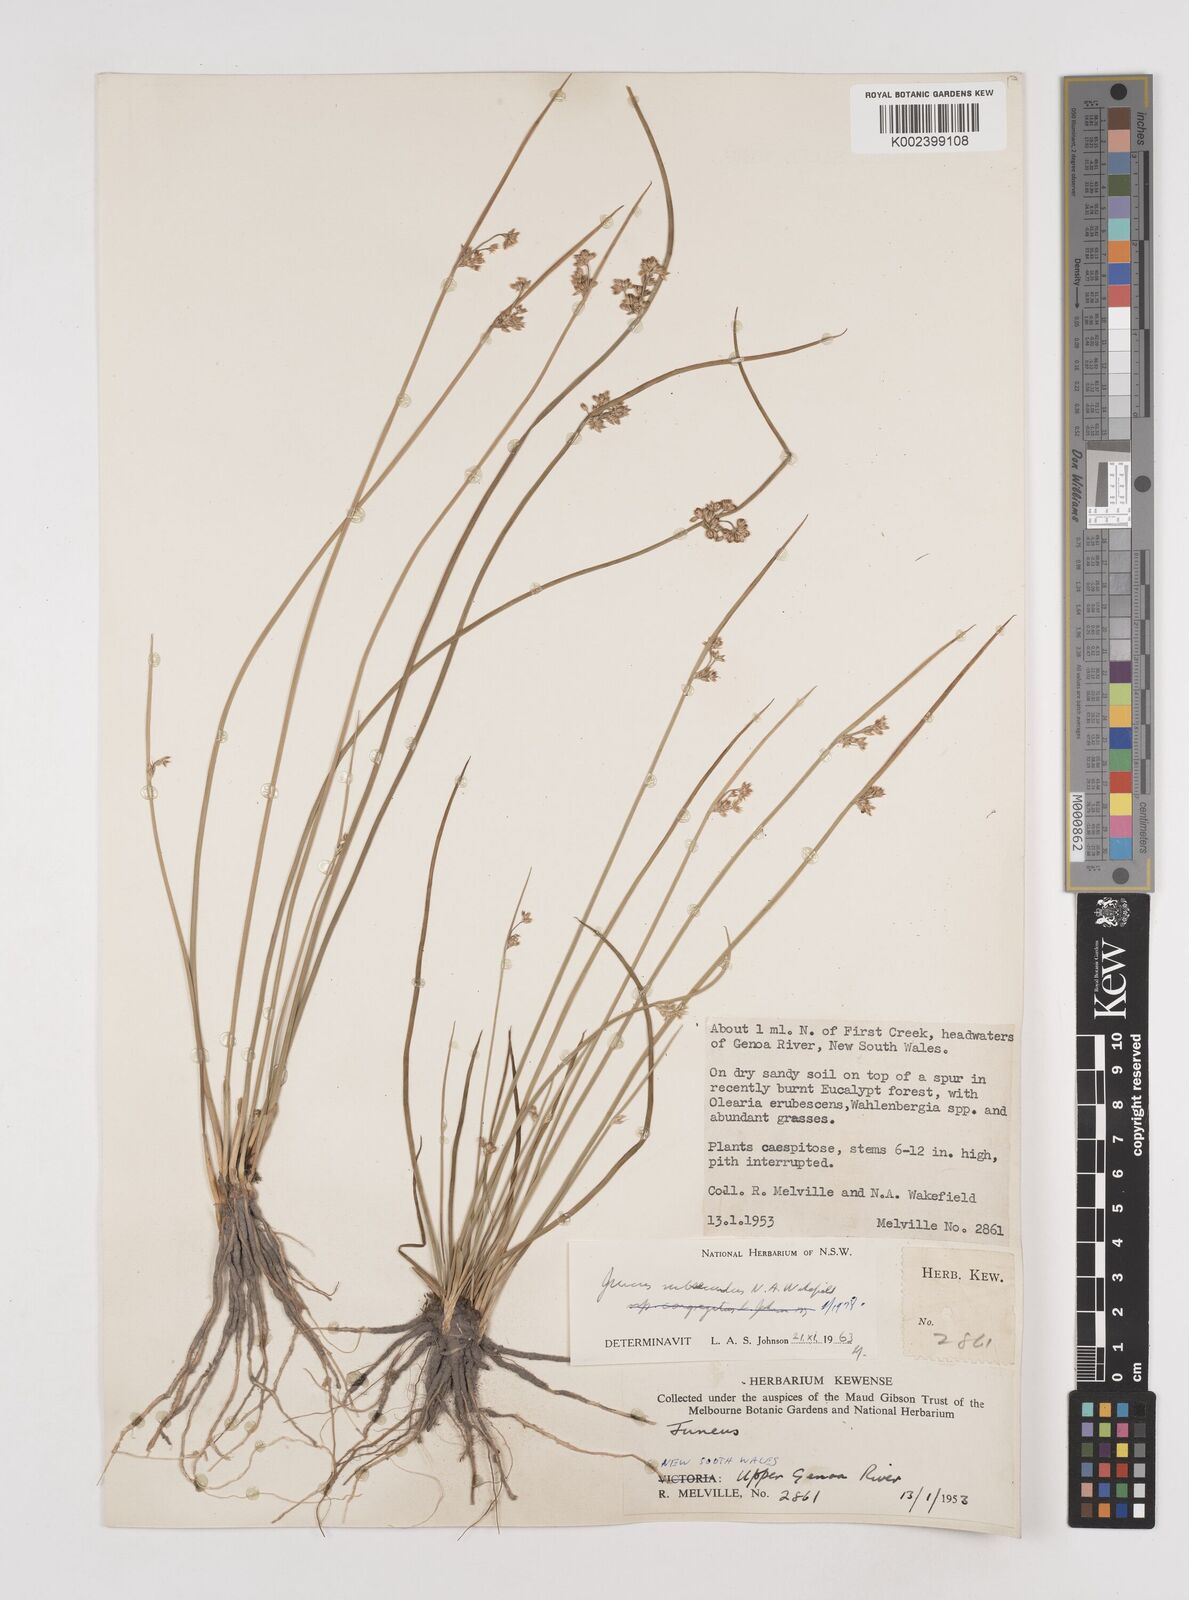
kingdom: Plantae
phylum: Tracheophyta
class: Liliopsida
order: Poales
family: Juncaceae
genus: Juncus
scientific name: Juncus subsecundus
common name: Fingered rush
